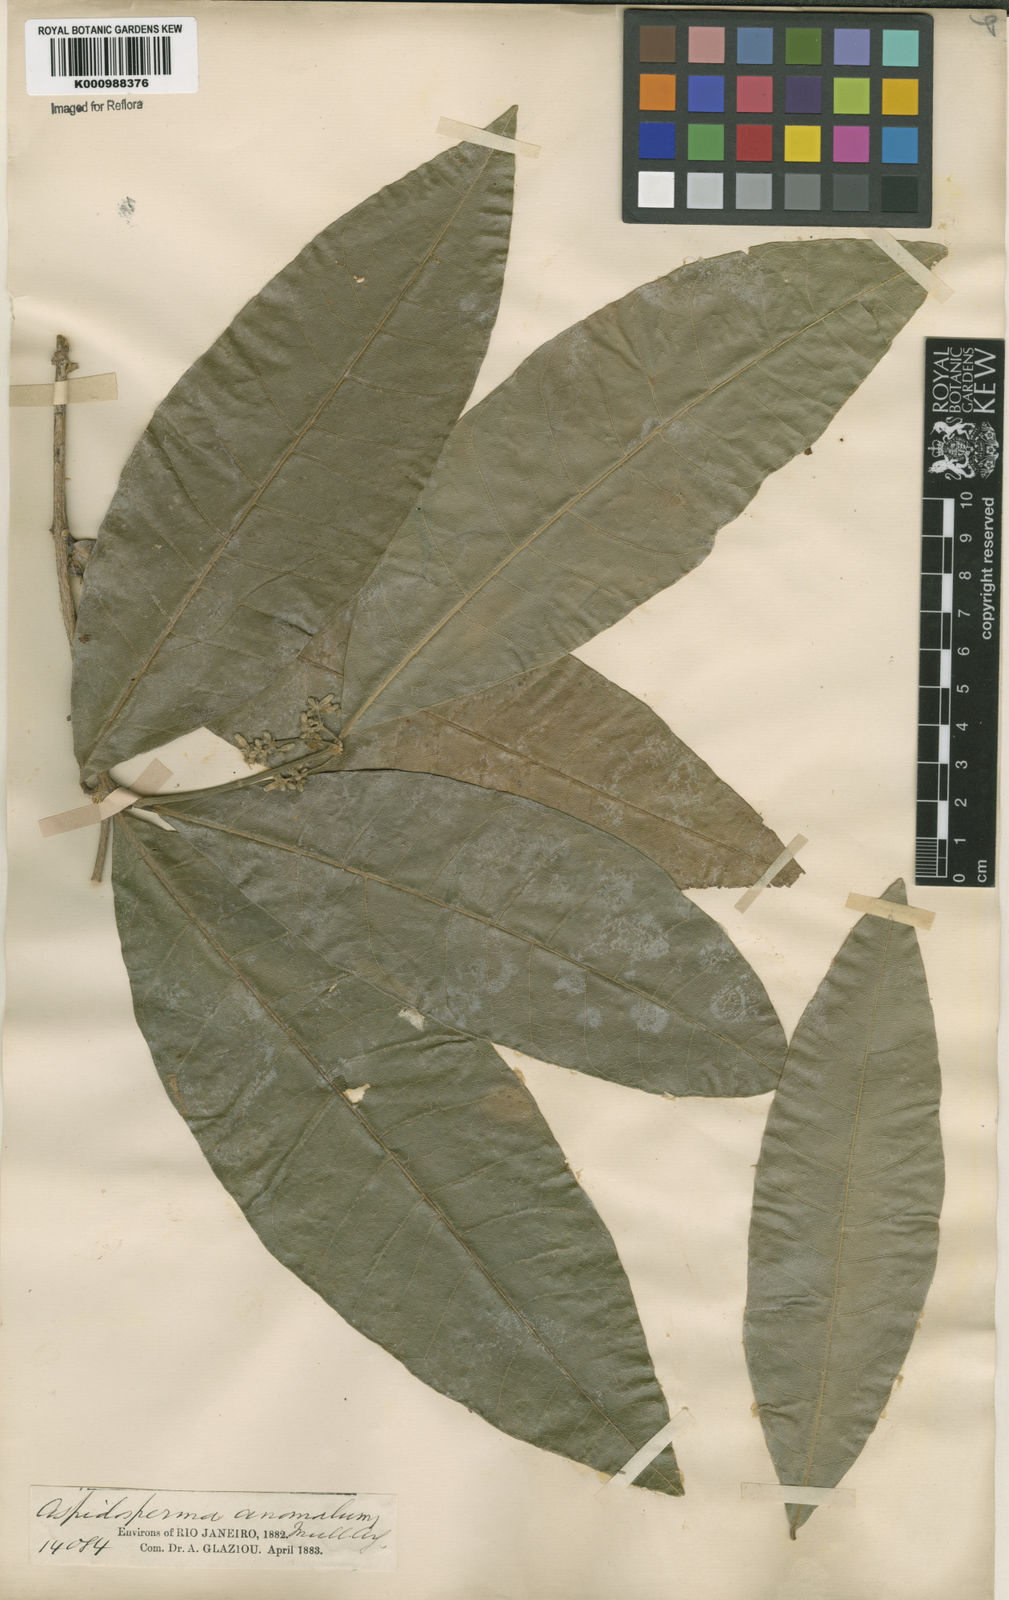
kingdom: Plantae
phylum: Tracheophyta
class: Magnoliopsida
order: Gentianales
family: Apocynaceae
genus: Microplumeria
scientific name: Microplumeria
